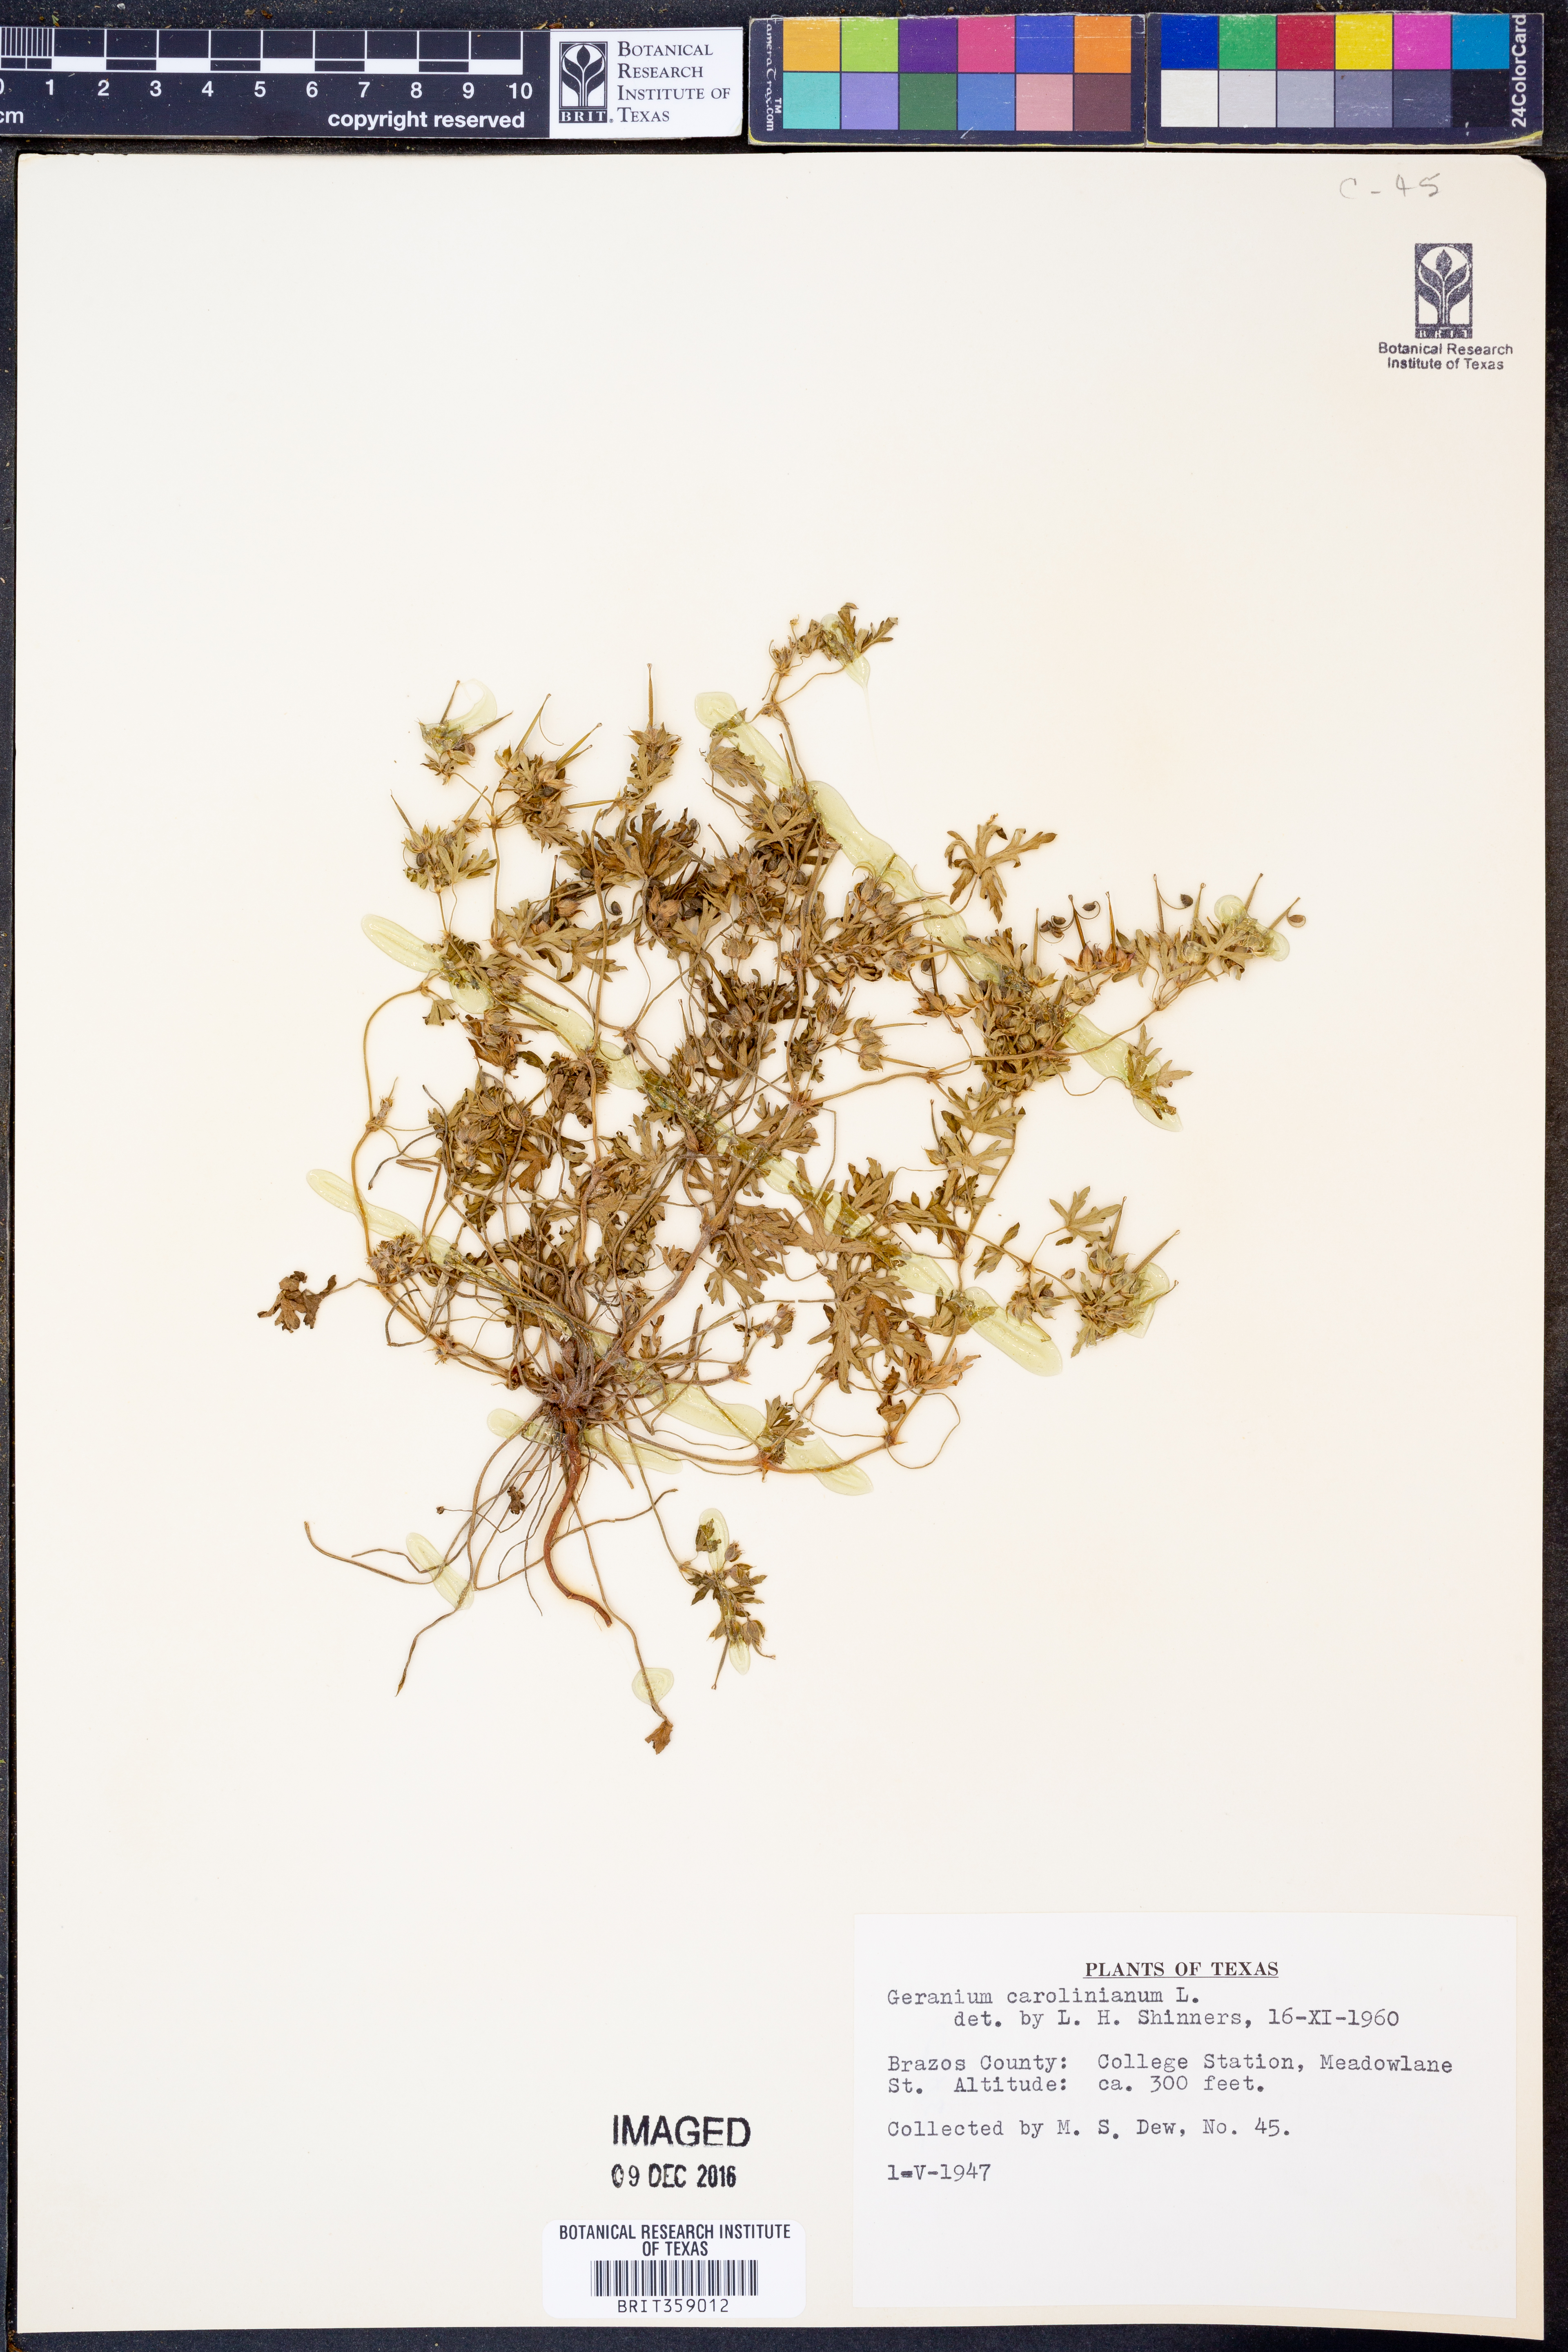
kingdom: Plantae
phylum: Tracheophyta
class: Magnoliopsida
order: Geraniales
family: Geraniaceae
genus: Geranium
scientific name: Geranium carolinianum
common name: Carolina crane's-bill
